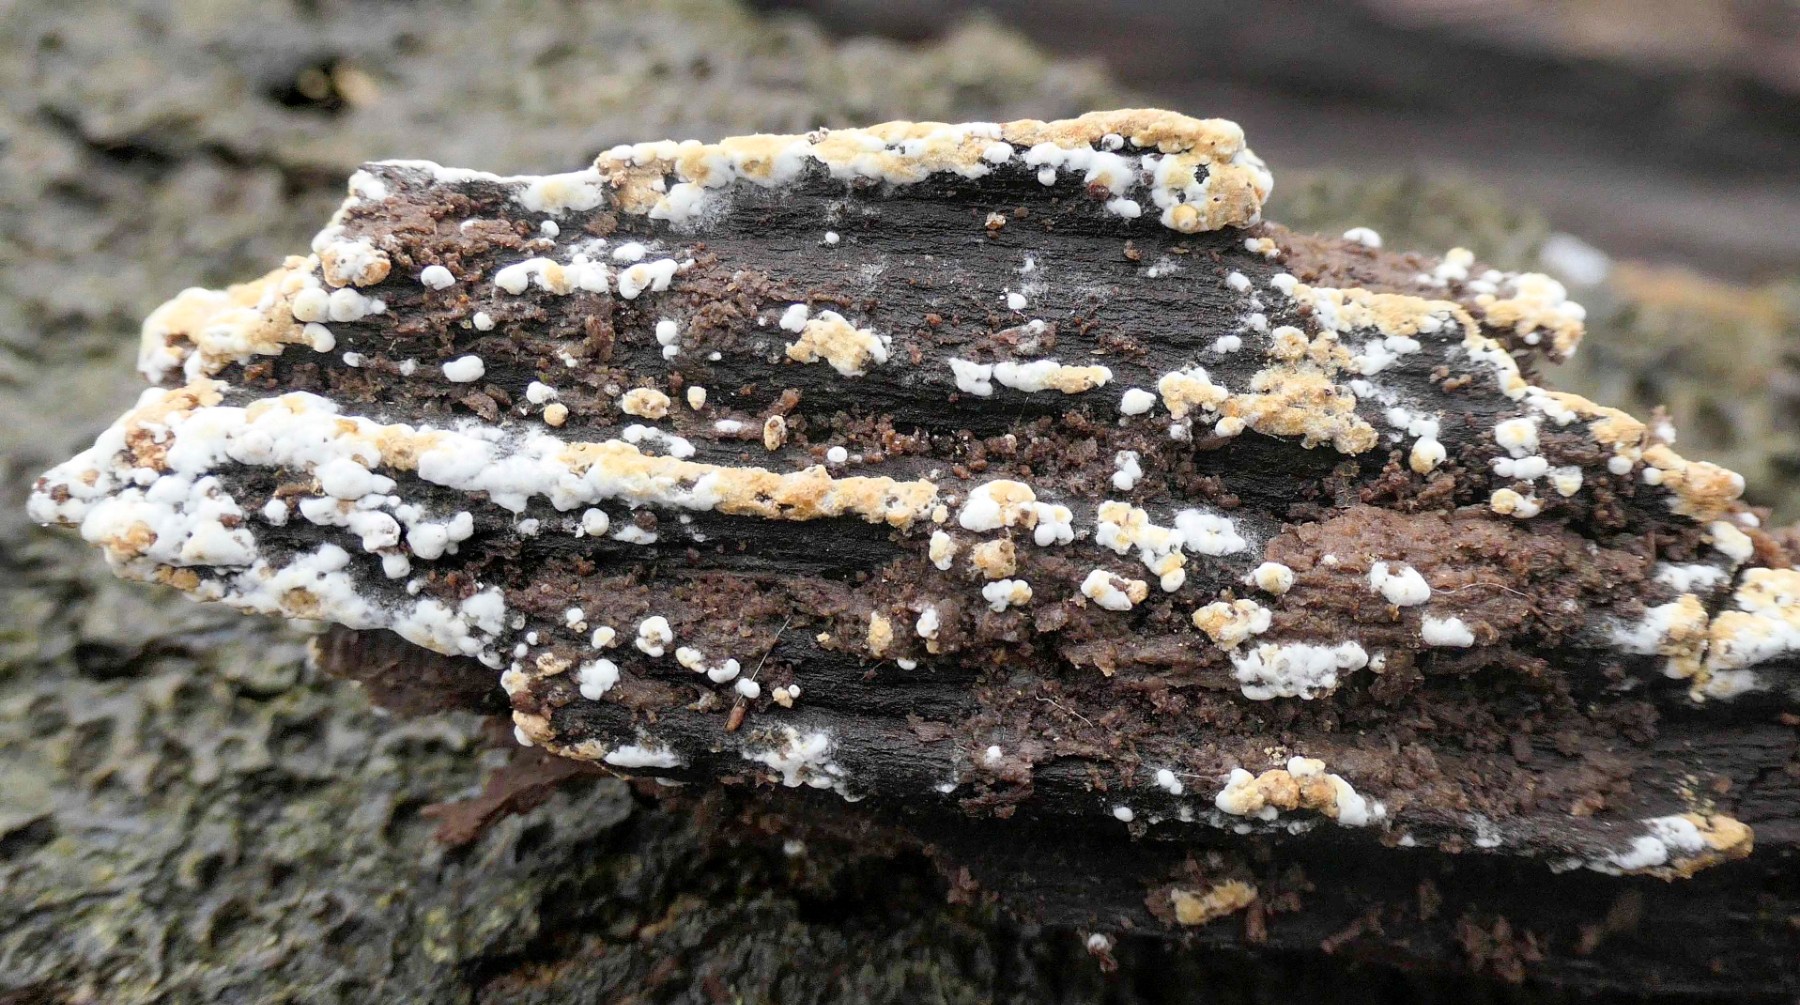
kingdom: Fungi
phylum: Basidiomycota
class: Agaricomycetes
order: Cantharellales
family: Botryobasidiaceae
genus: Botryobasidium
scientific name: Botryobasidium aureum
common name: gylden spindhinde
